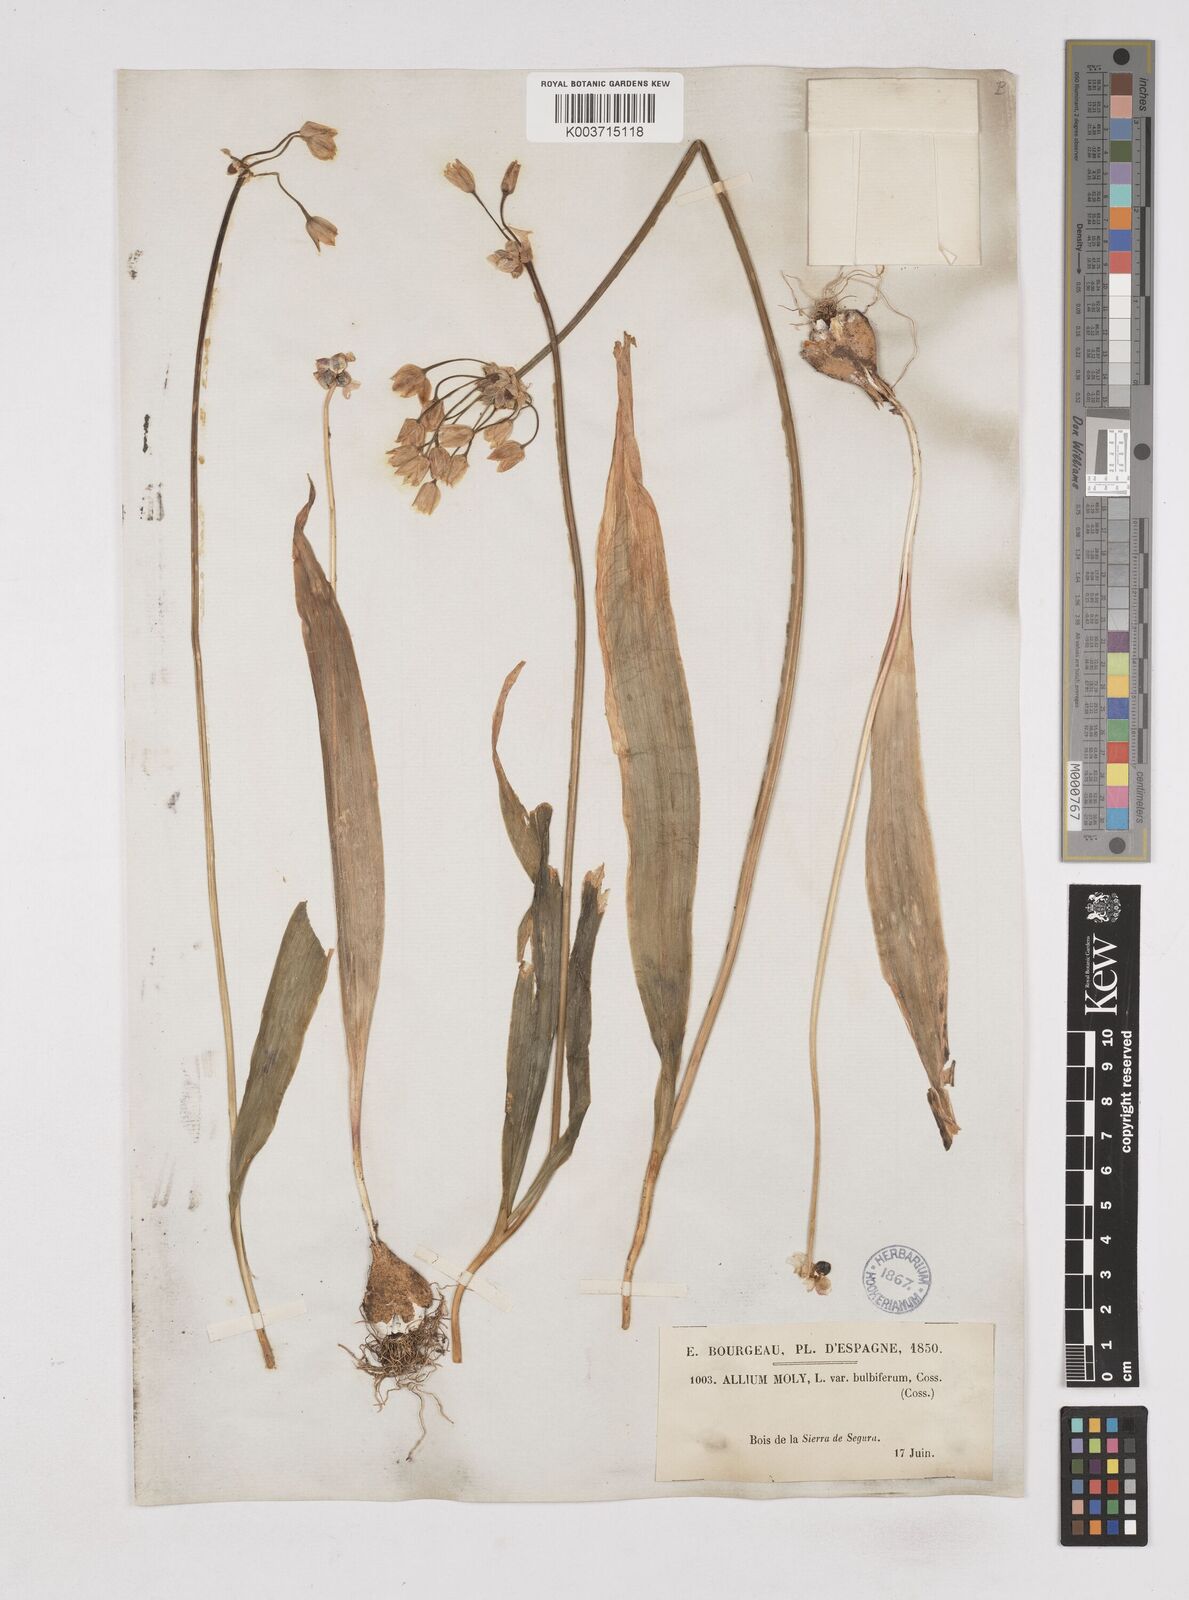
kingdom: Plantae
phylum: Tracheophyta
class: Liliopsida
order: Asparagales
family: Amaryllidaceae
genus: Allium
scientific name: Allium moly
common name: Yellow garlic
